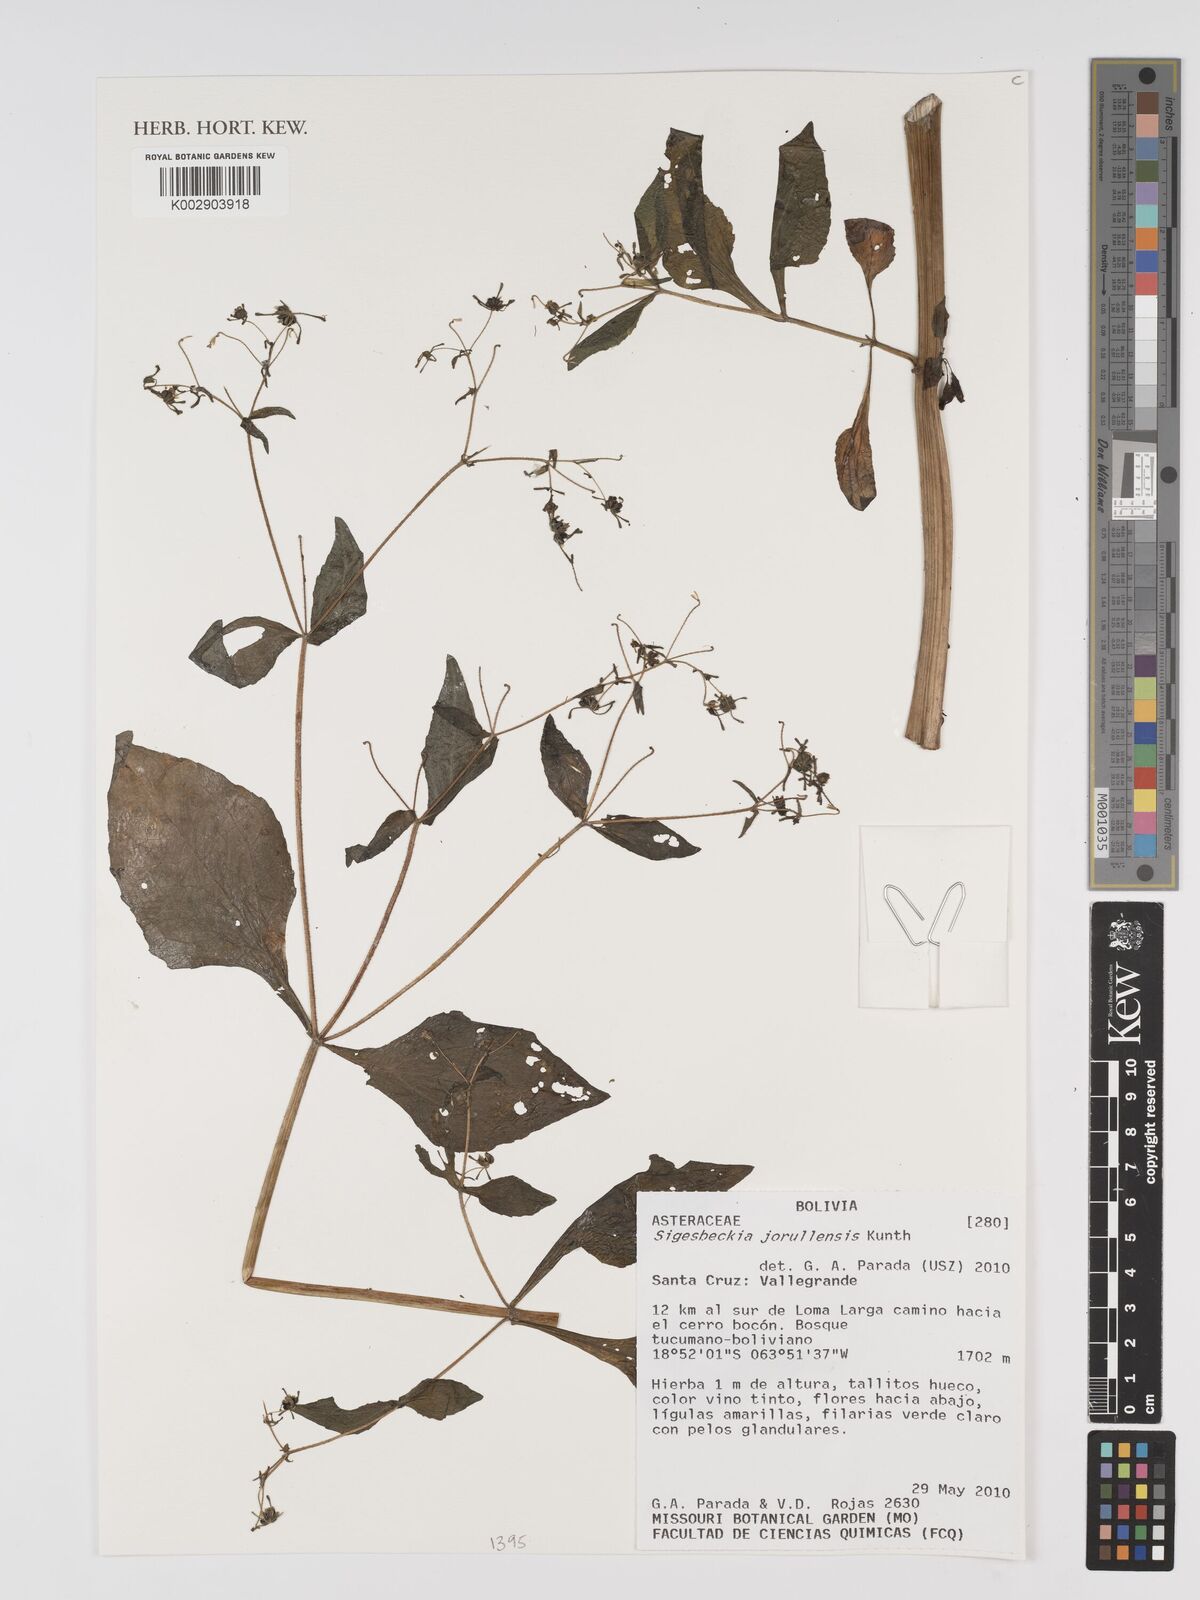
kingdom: Plantae
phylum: Tracheophyta
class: Magnoliopsida
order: Asterales
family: Asteraceae
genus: Sigesbeckia
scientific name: Sigesbeckia jorullensis
